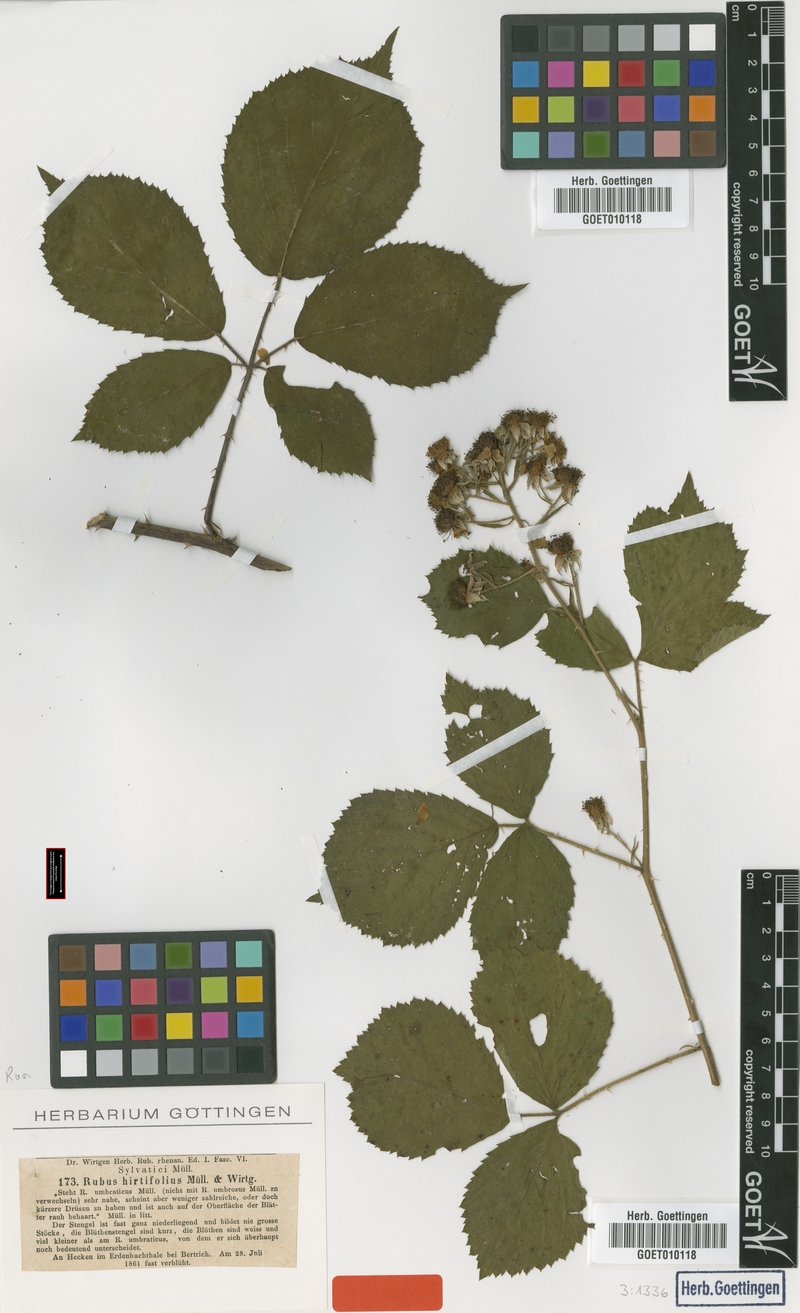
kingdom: Plantae
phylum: Tracheophyta
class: Magnoliopsida
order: Rosales
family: Rosaceae
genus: Rubus
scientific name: Rubus hirtifolius
